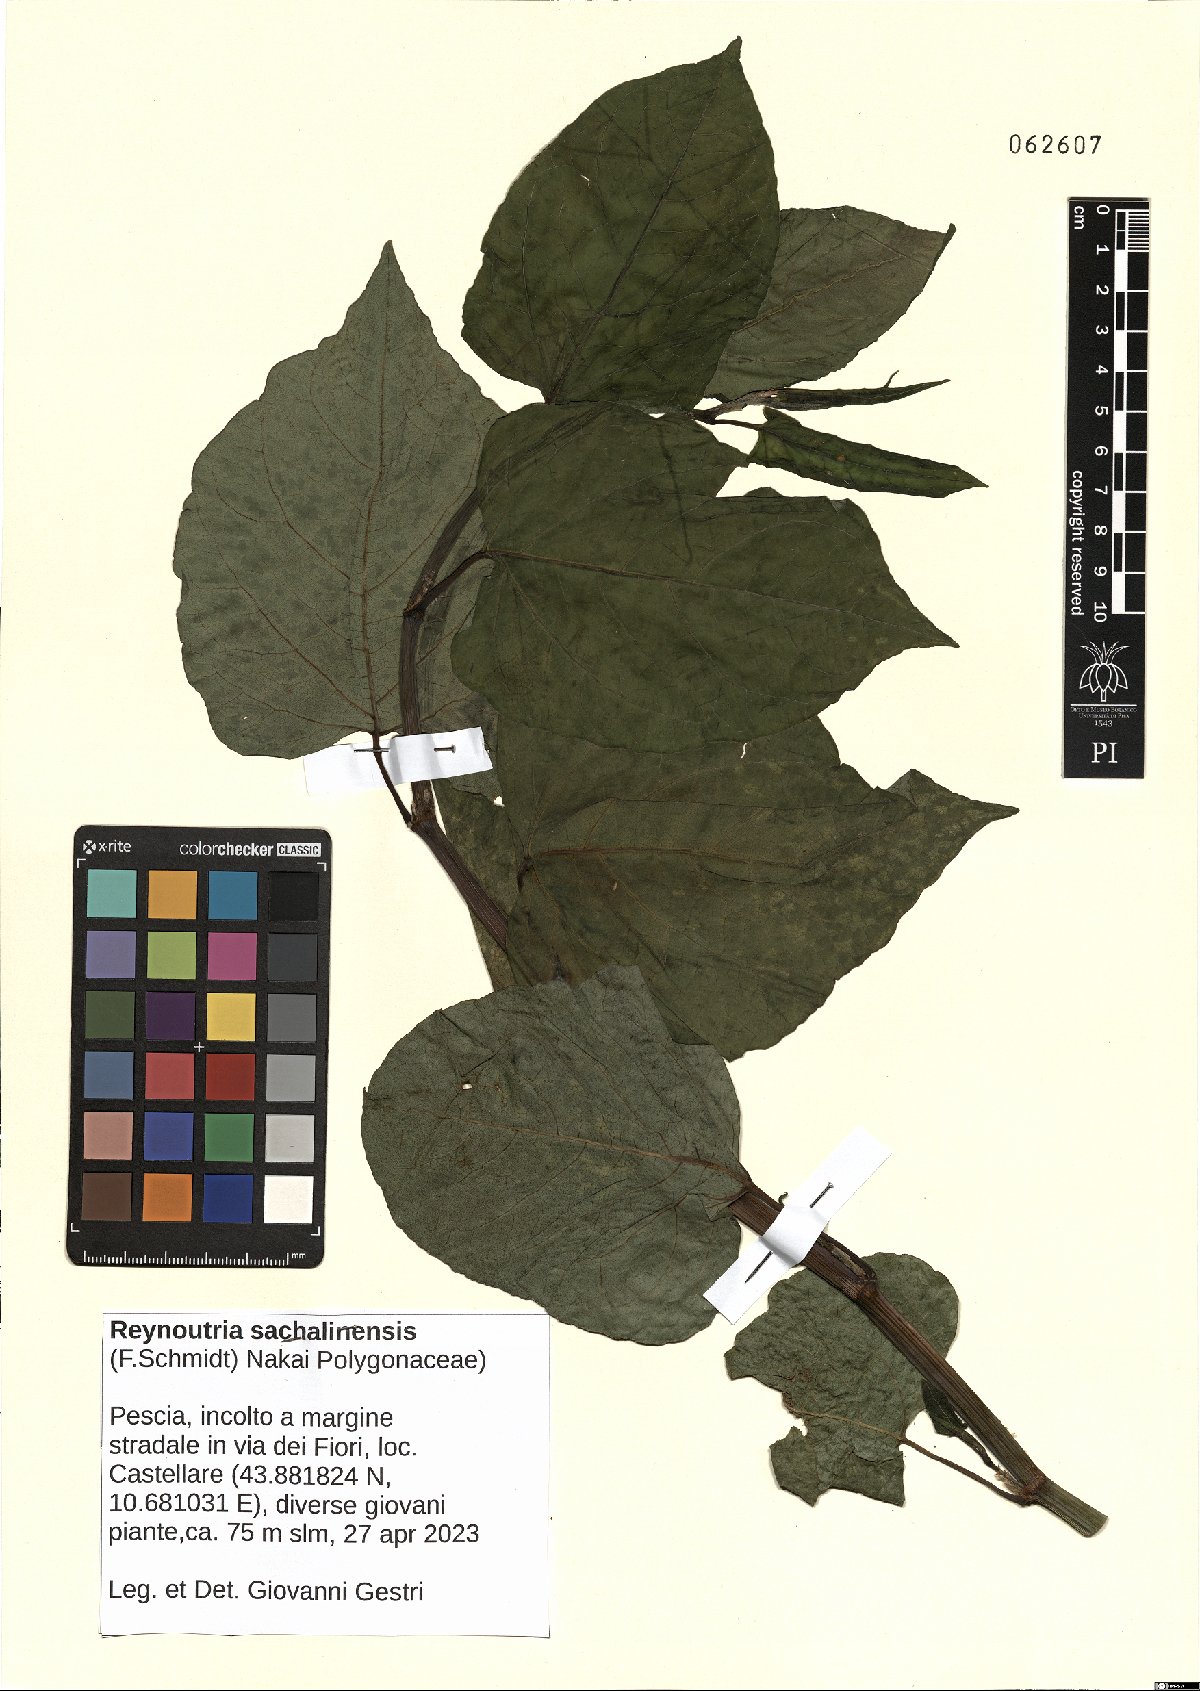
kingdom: Plantae
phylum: Tracheophyta
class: Magnoliopsida
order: Caryophyllales
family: Polygonaceae
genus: Reynoutria
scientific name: Reynoutria sachalinensis
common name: Giant knotweed
